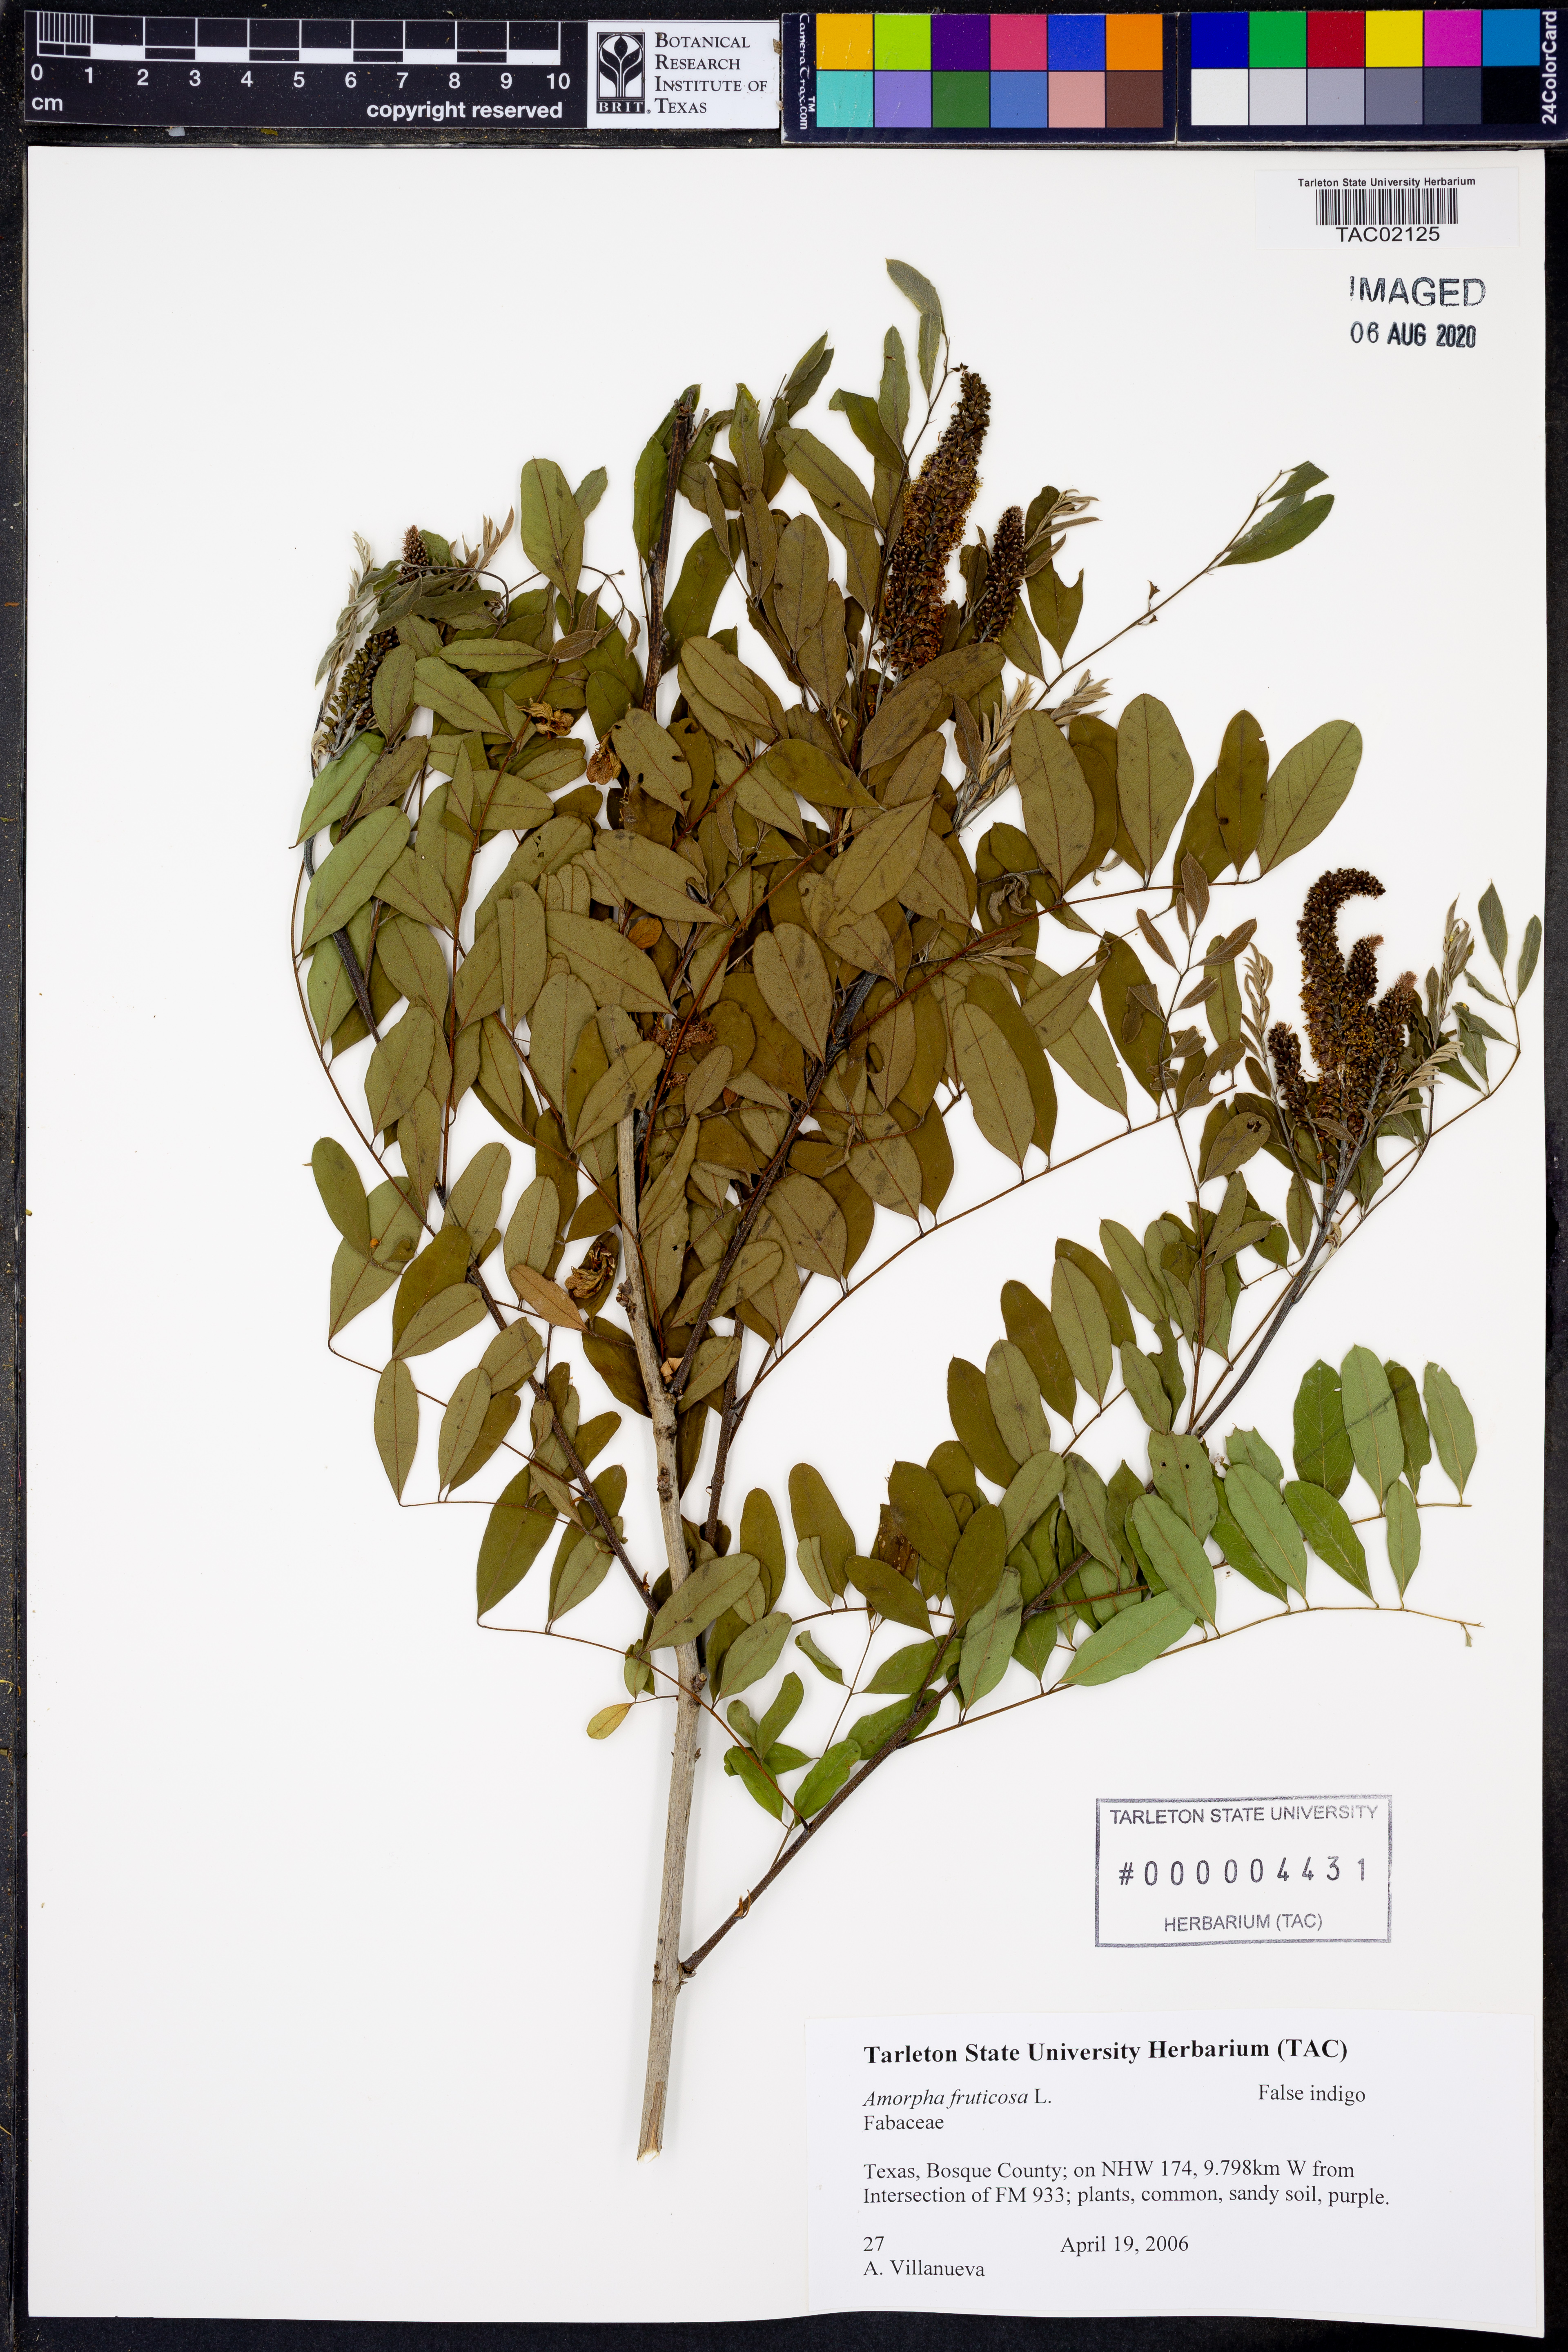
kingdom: Plantae
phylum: Tracheophyta
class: Magnoliopsida
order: Fabales
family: Fabaceae
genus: Amorpha
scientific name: Amorpha fruticosa
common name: False indigo
